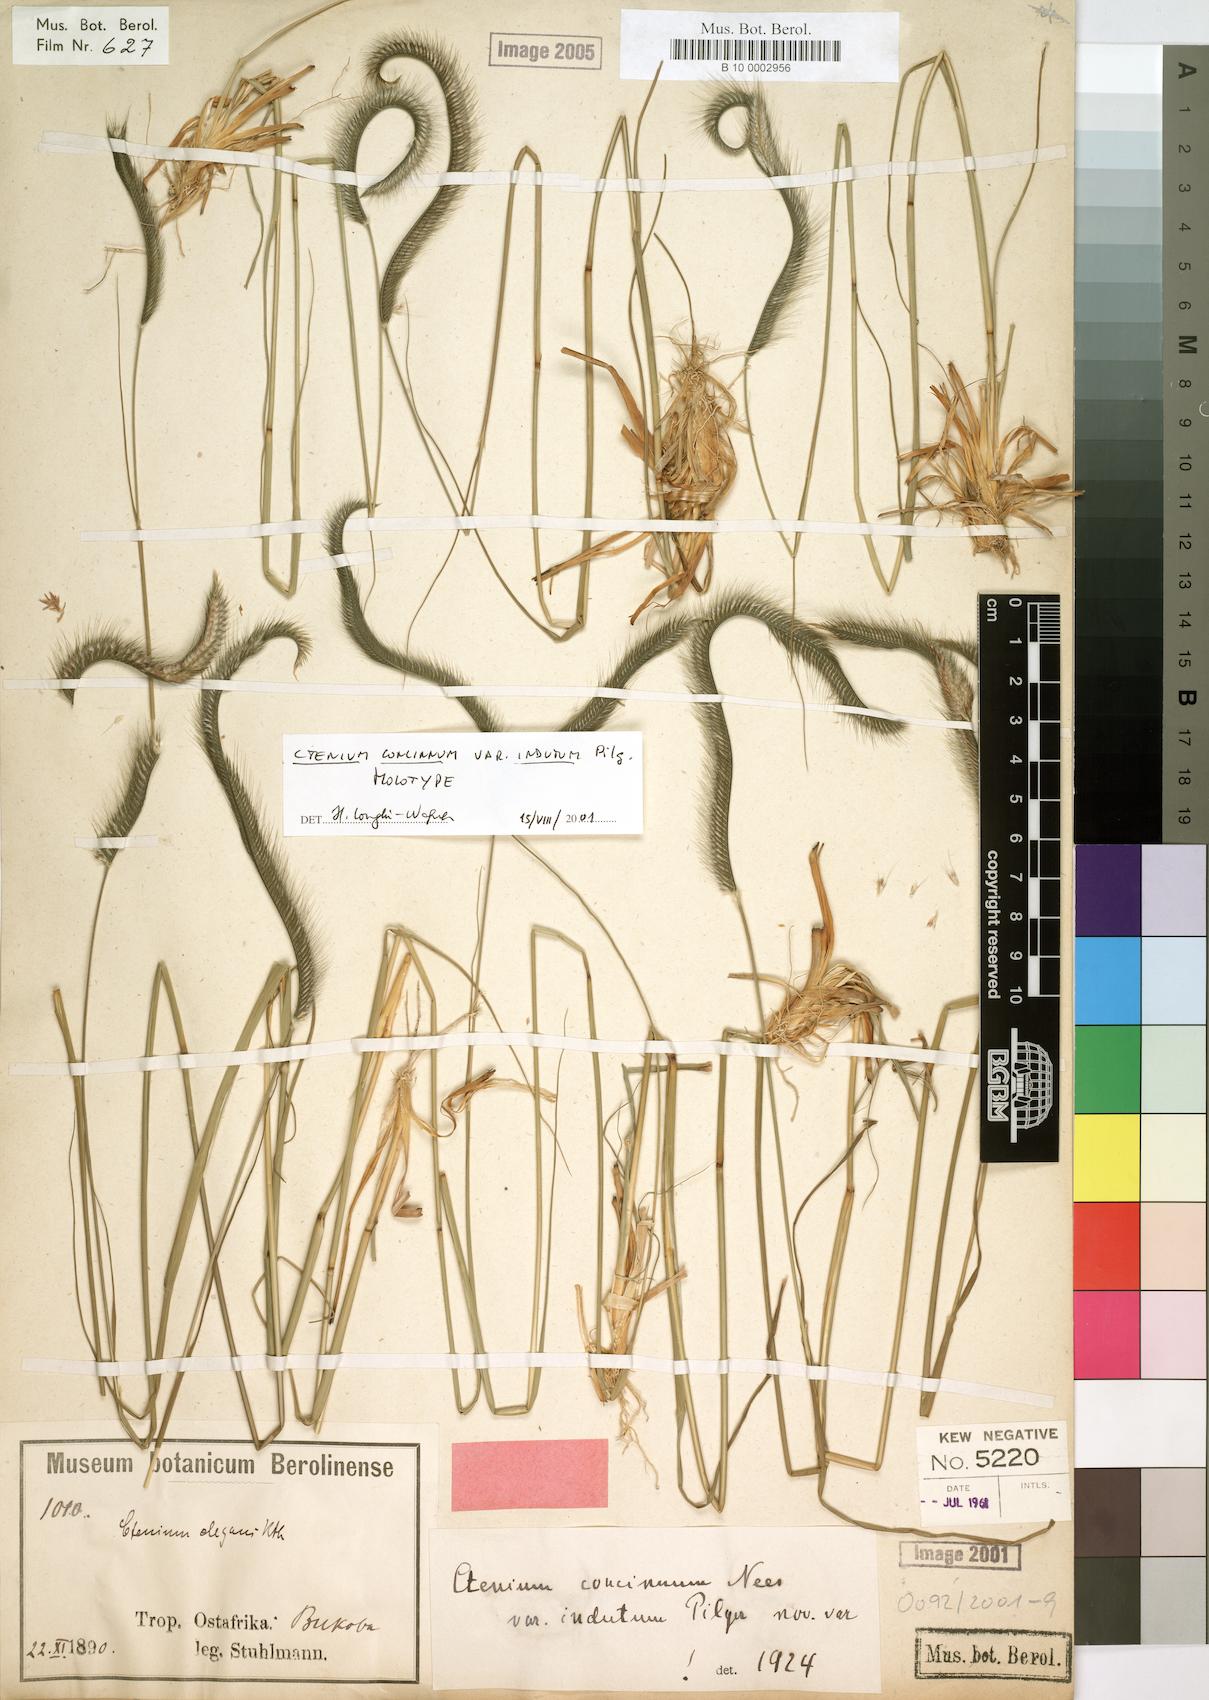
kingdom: Plantae
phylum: Tracheophyta
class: Liliopsida
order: Poales
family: Poaceae
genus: Ctenium
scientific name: Ctenium concinnum
